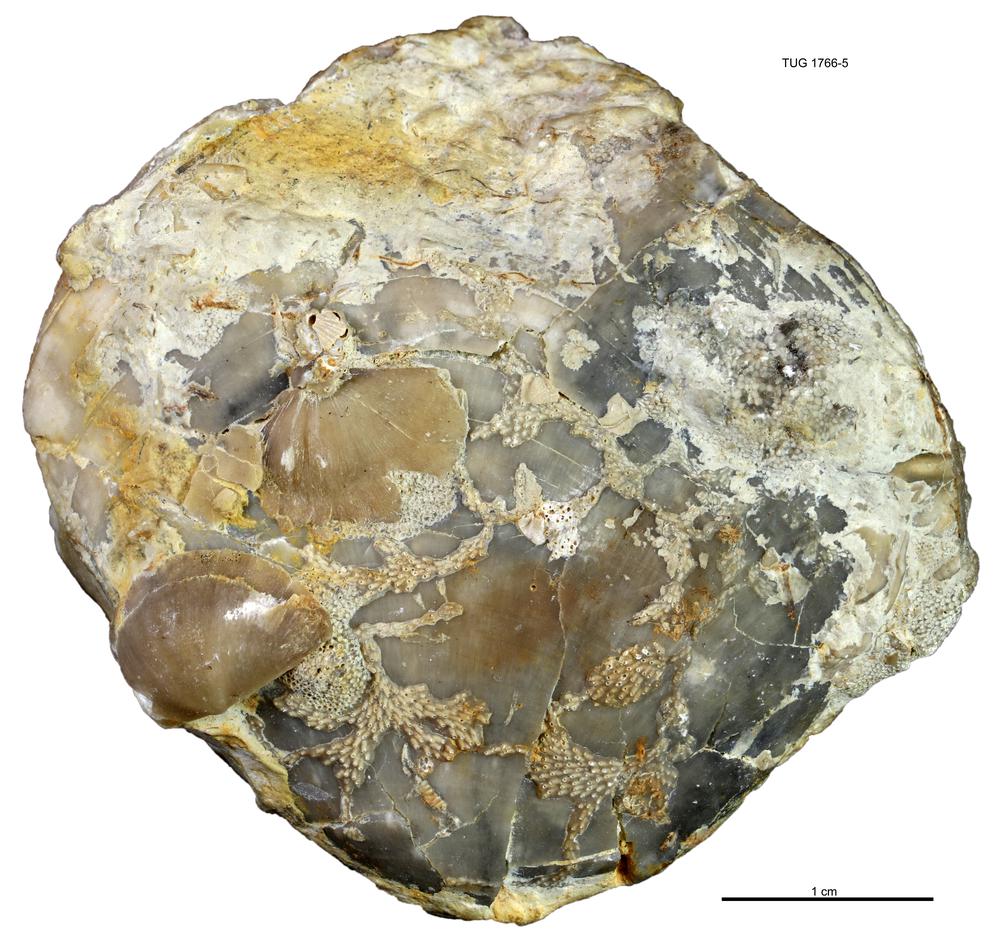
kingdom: Animalia
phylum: Brachiopoda
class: Rhynchonellata
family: Porambonitidae
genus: Porambonites
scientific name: Porambonites
